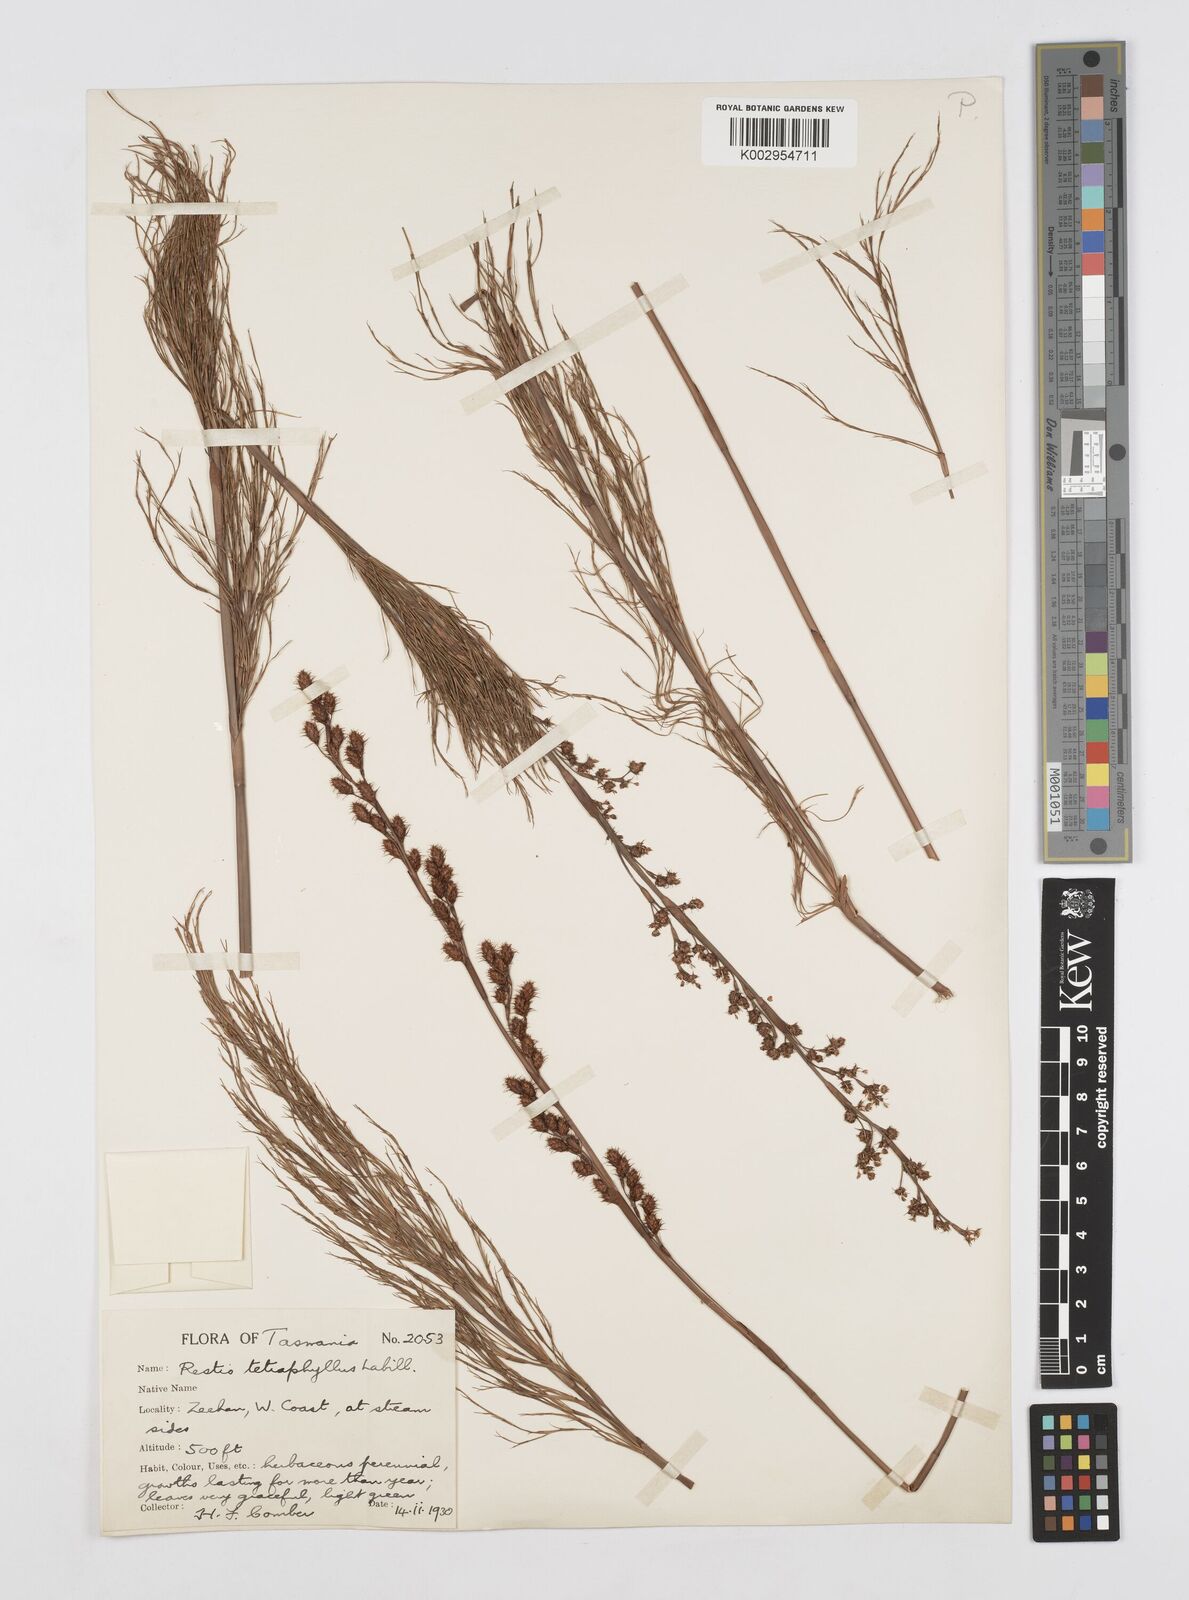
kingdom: Plantae
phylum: Tracheophyta
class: Liliopsida
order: Poales
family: Restionaceae
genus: Baloskion
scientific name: Baloskion tetraphyllum
